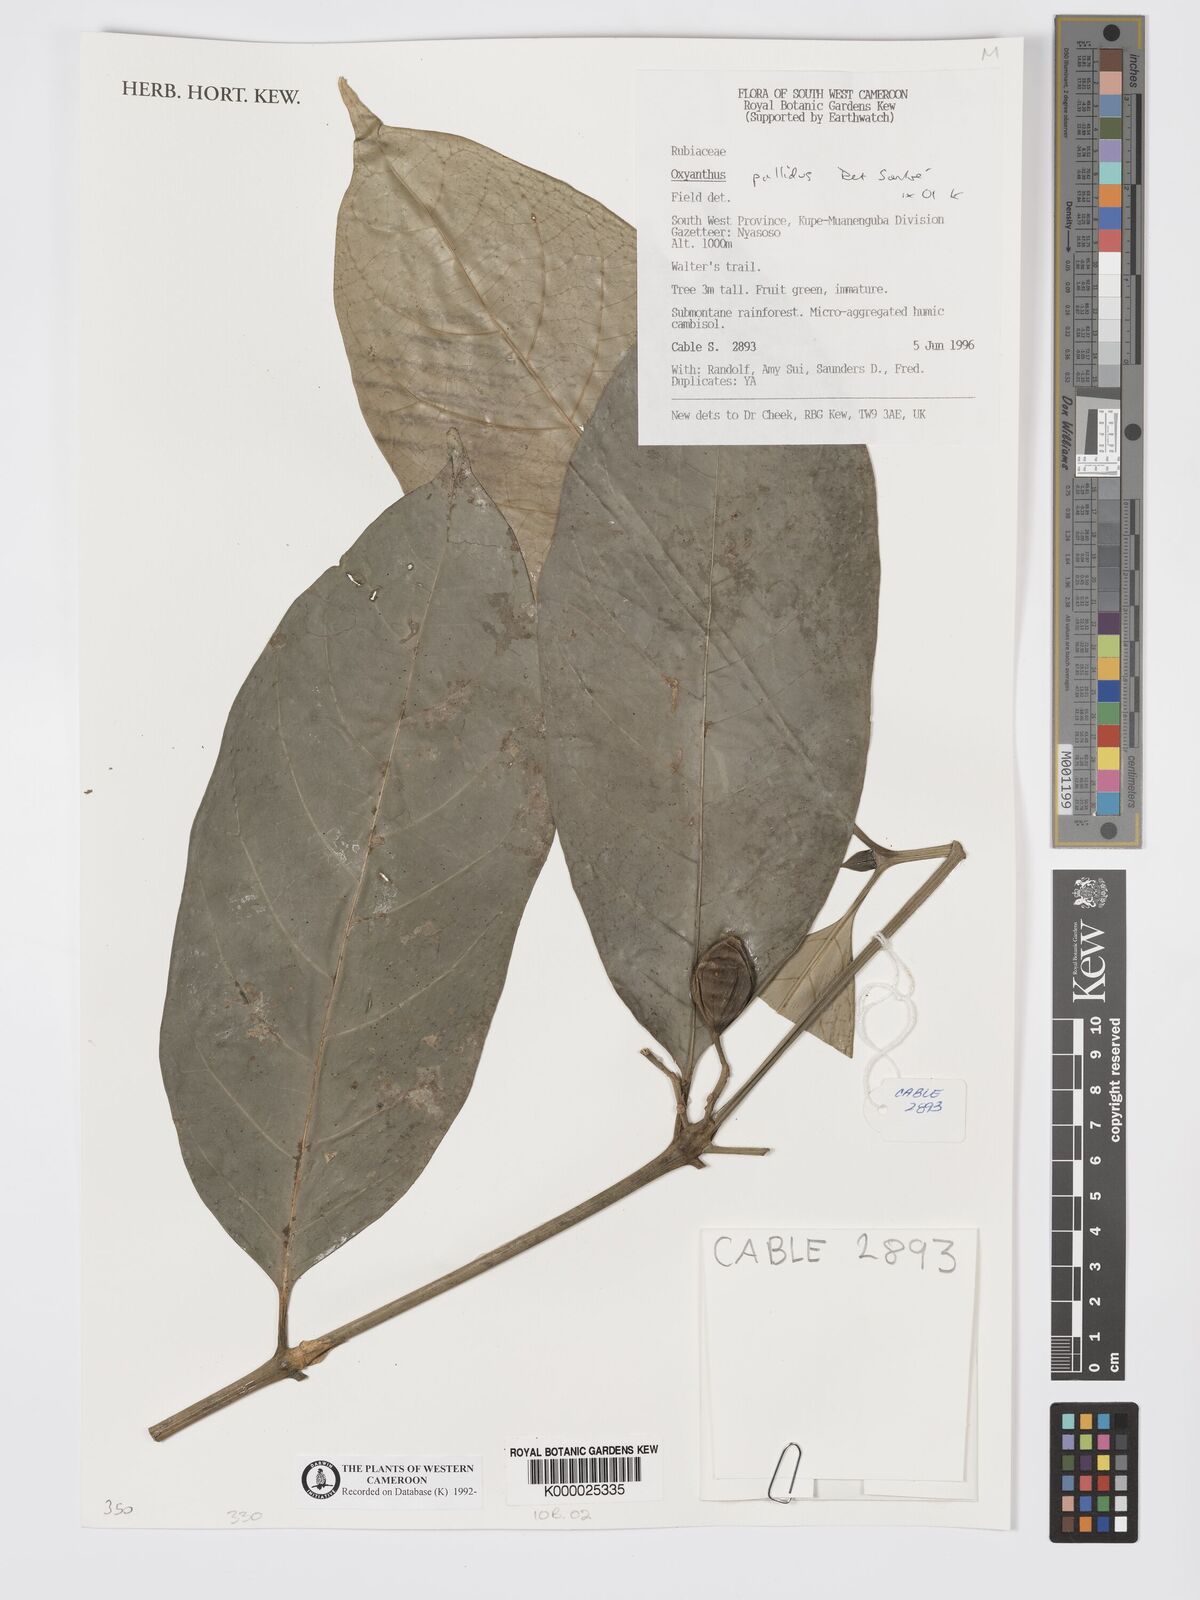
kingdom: Plantae
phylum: Tracheophyta
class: Magnoliopsida
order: Gentianales
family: Rubiaceae
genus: Oxyanthus
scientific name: Oxyanthus pallidus
